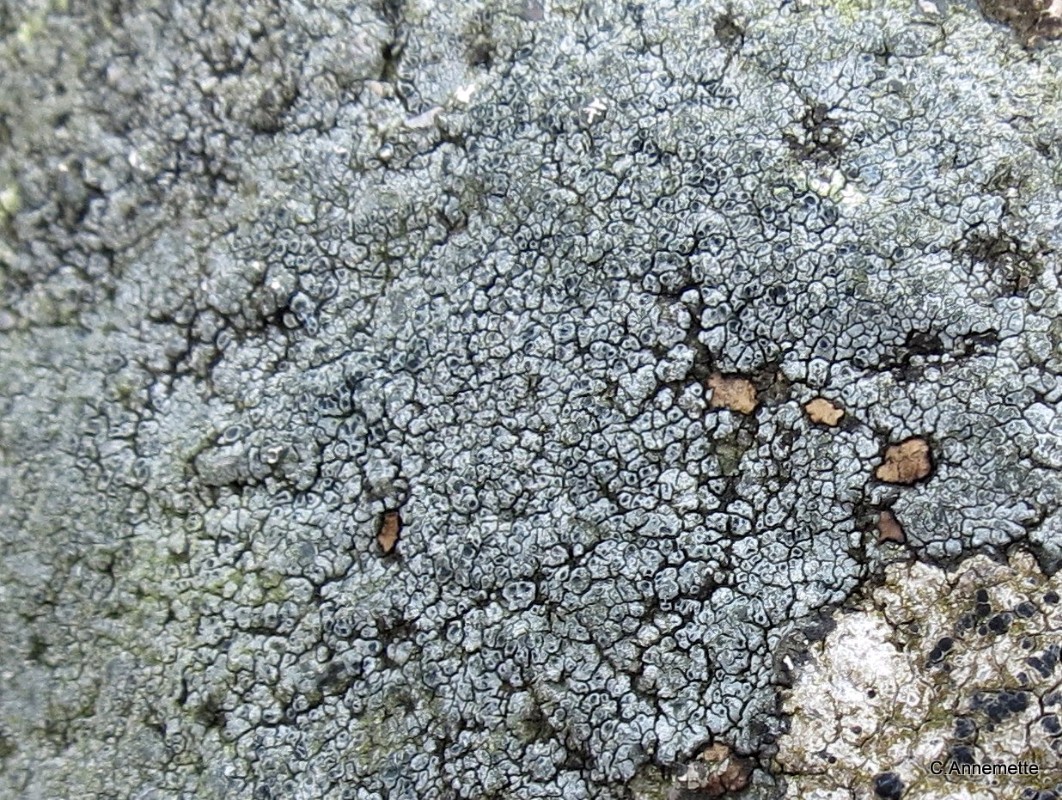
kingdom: Fungi
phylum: Ascomycota
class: Lecanoromycetes
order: Pertusariales
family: Megasporaceae
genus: Circinaria
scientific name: Circinaria caesiocinerea
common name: fuglestens-hulskivelav
